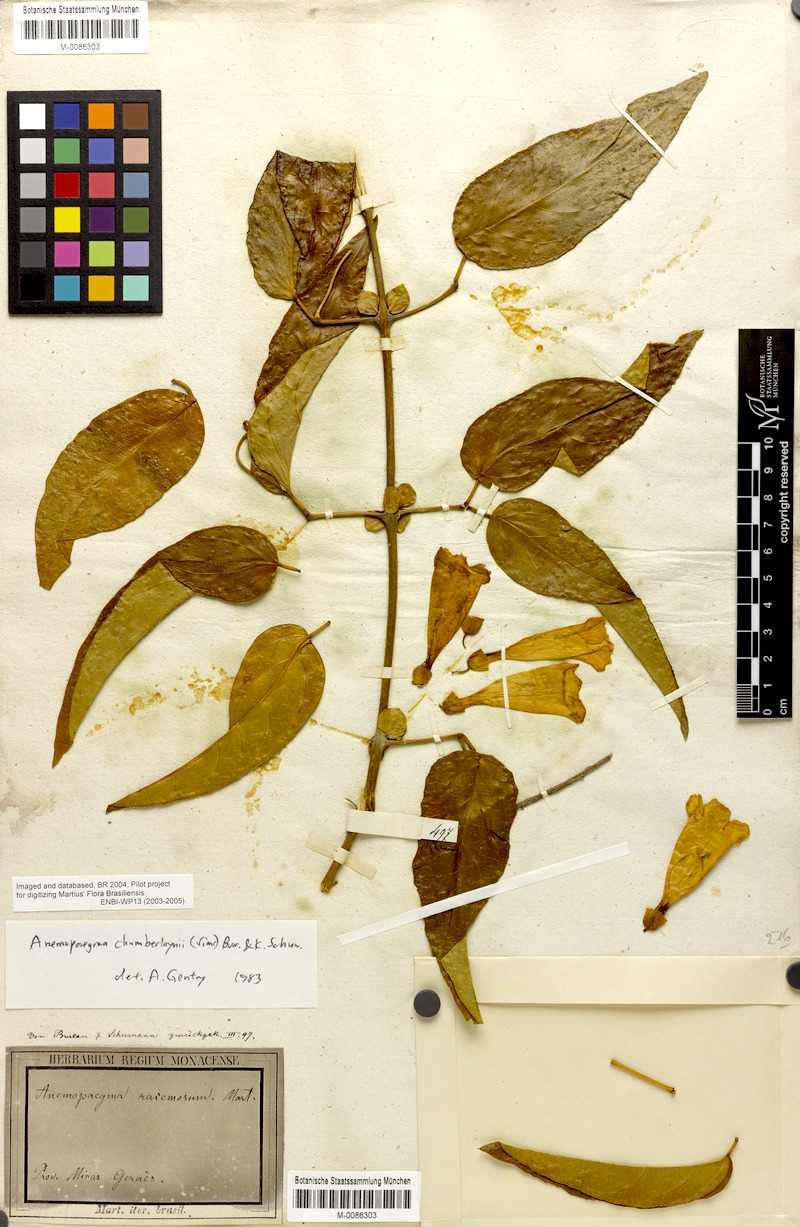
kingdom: Plantae
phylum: Tracheophyta
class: Magnoliopsida
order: Lamiales
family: Bignoniaceae
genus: Anemopaegma
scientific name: Anemopaegma chamberlaynii
